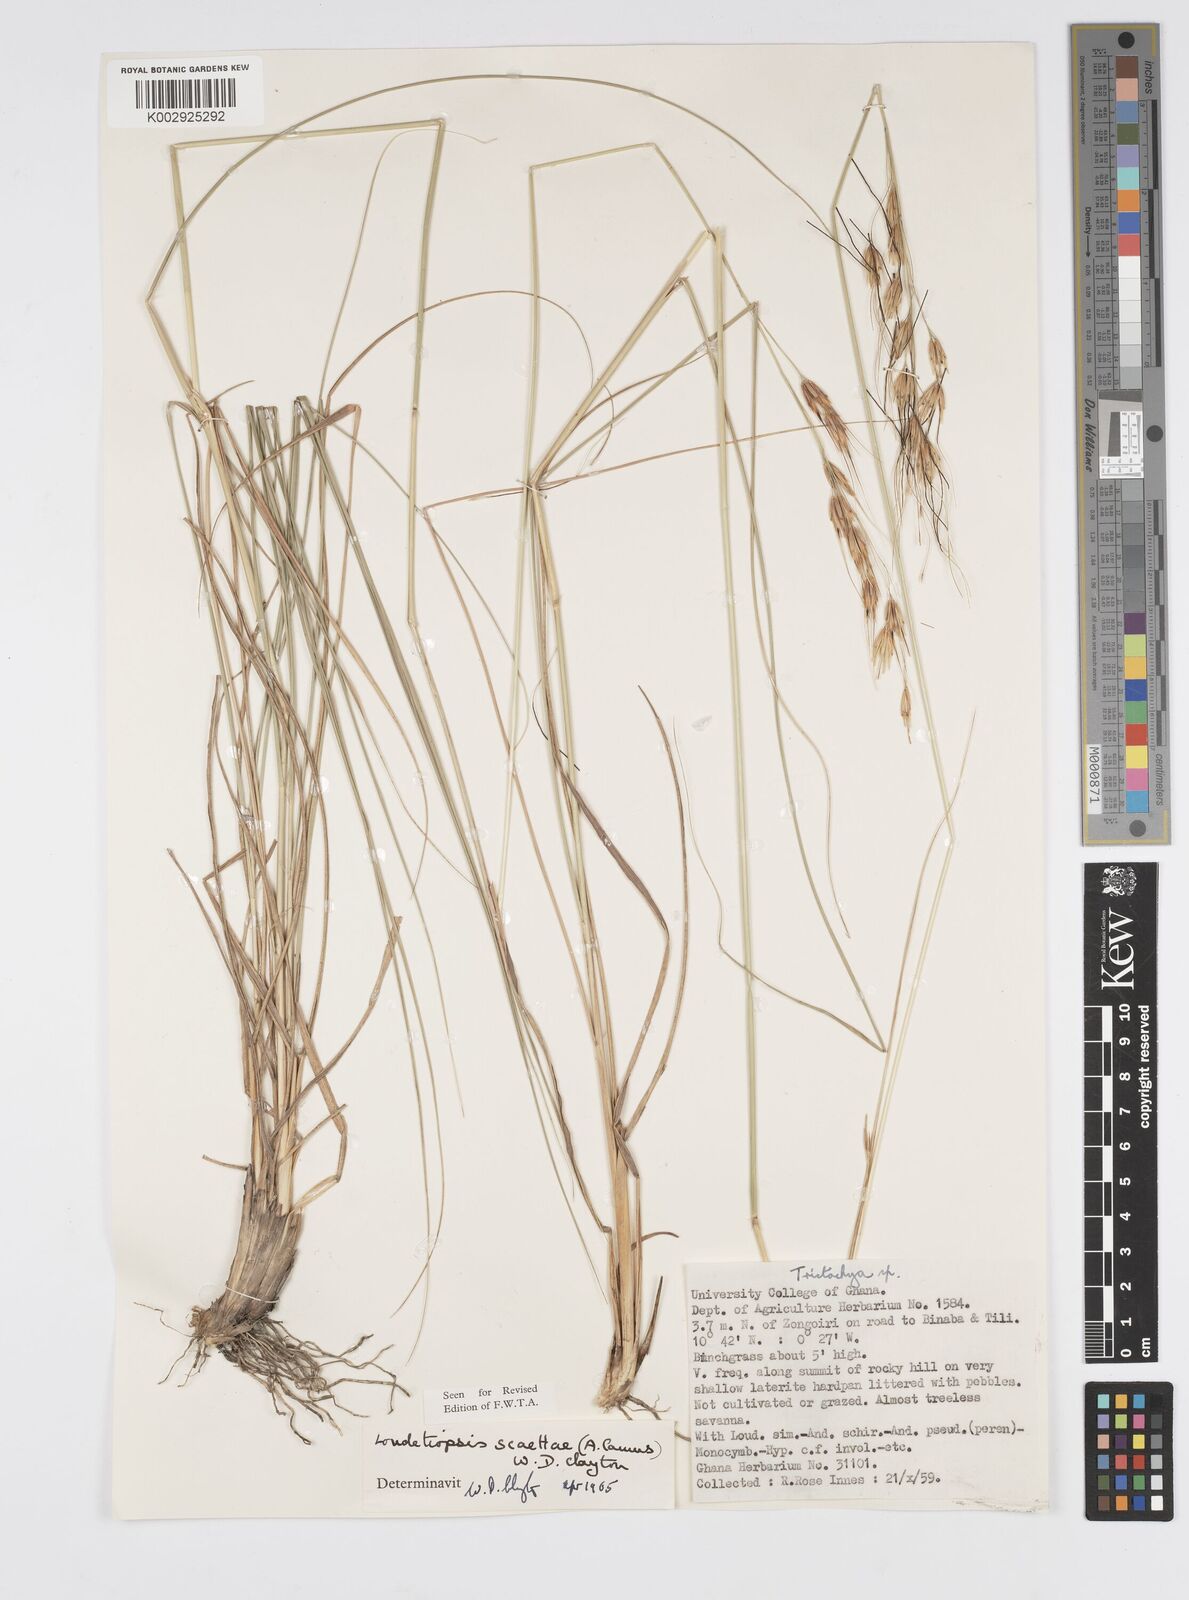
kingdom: Plantae
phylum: Tracheophyta
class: Liliopsida
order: Poales
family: Poaceae
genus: Loudetiopsis
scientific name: Loudetiopsis scaettae
